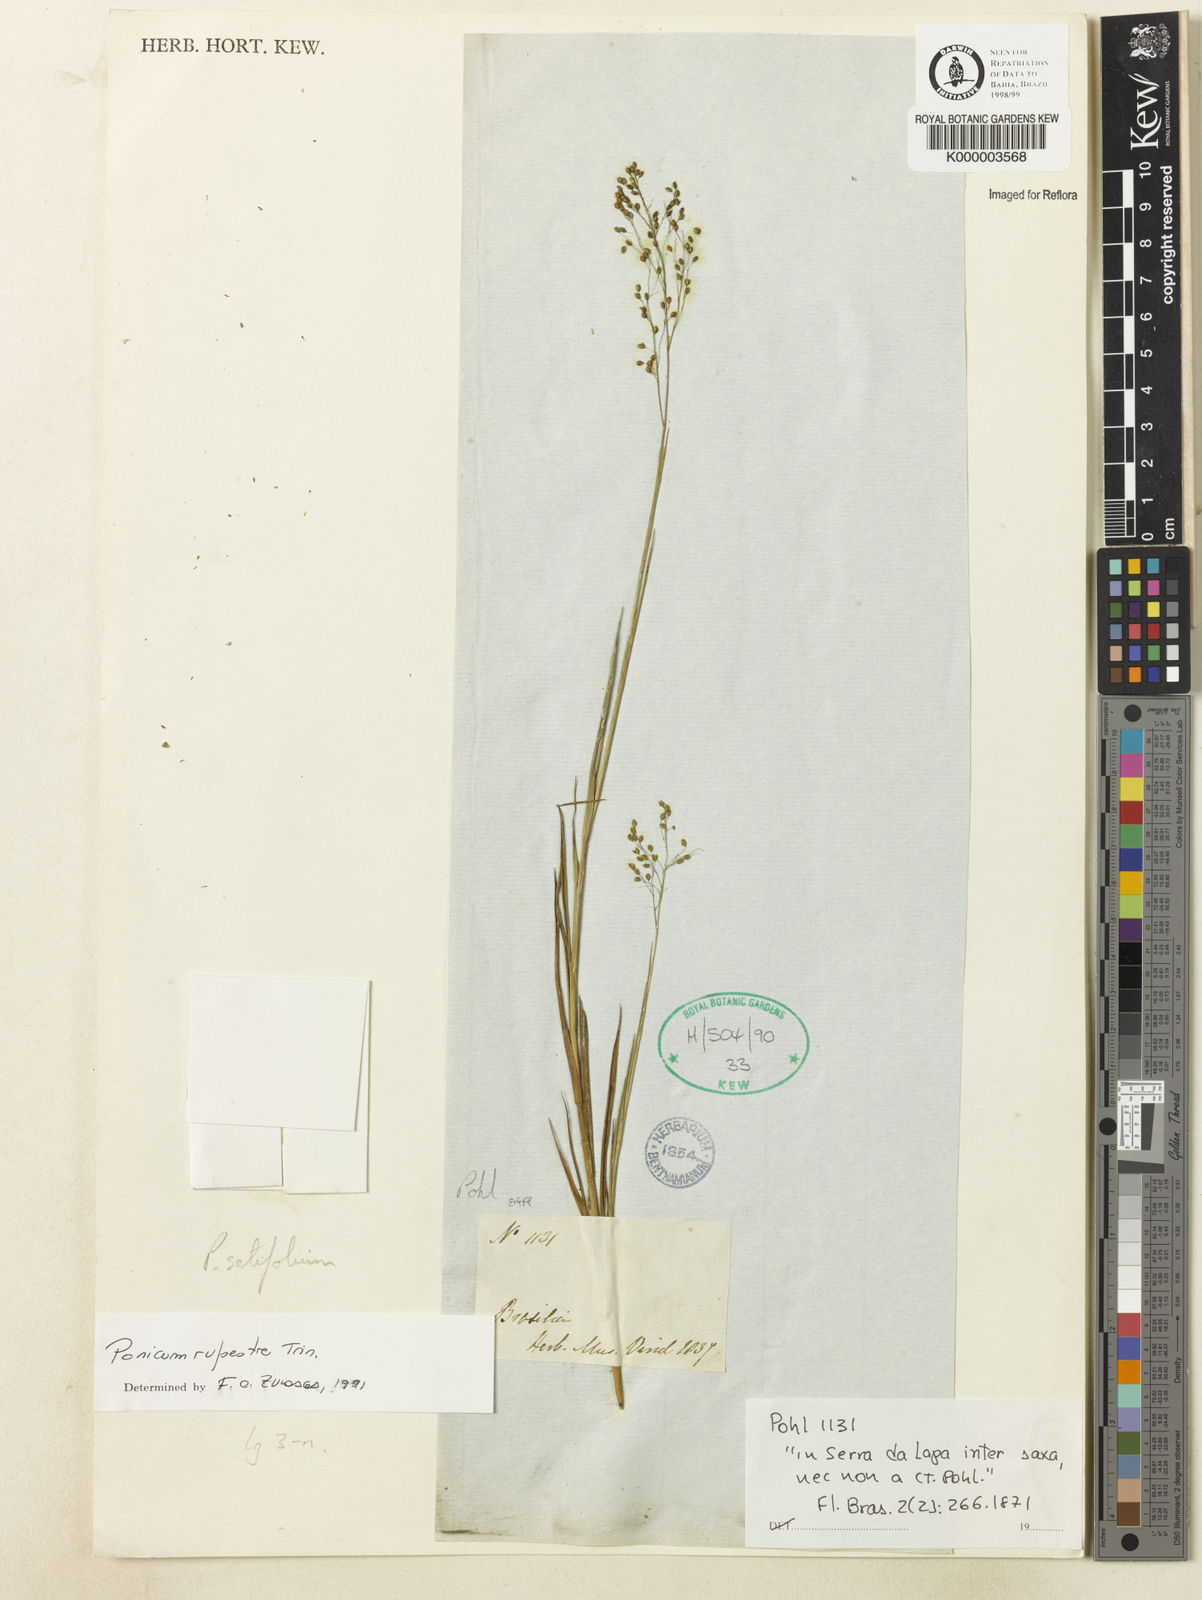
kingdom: Plantae
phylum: Tracheophyta
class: Liliopsida
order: Poales
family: Poaceae
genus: Panicum
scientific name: Panicum rupestre
